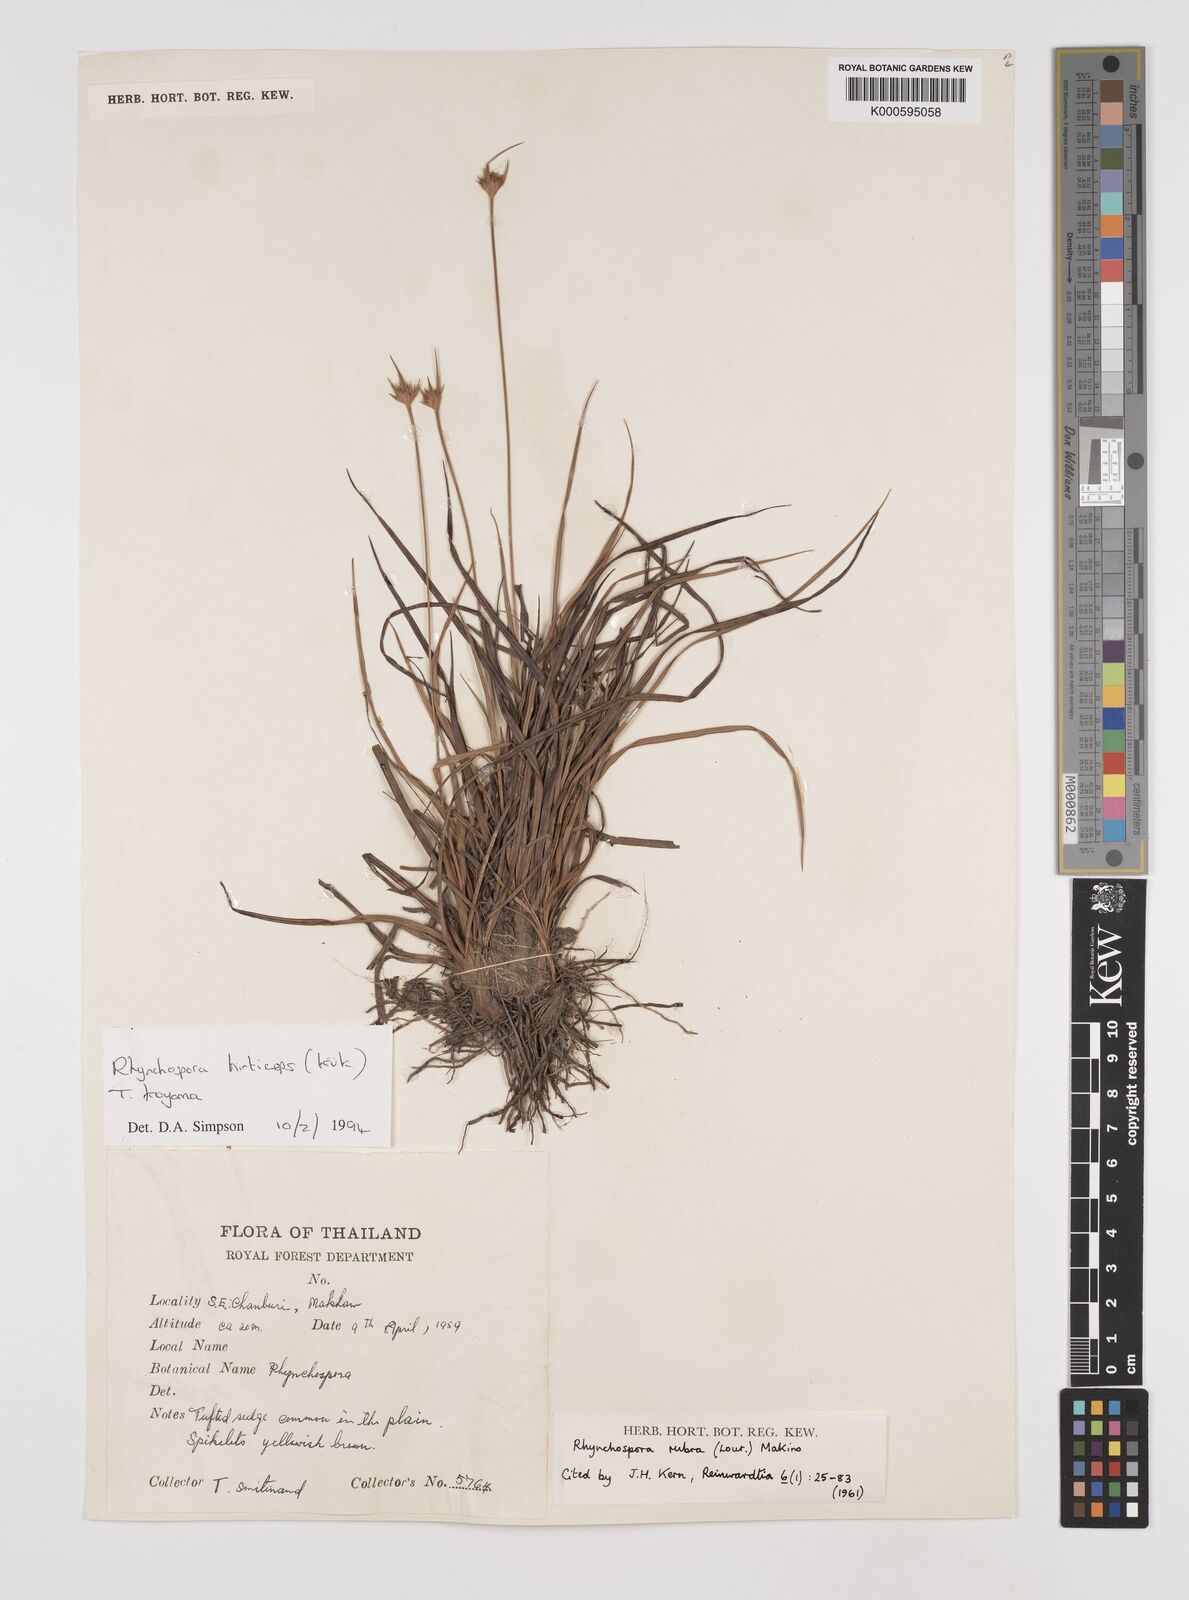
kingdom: Plantae
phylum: Tracheophyta
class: Liliopsida
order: Poales
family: Cyperaceae
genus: Rhynchospora
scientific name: Rhynchospora
